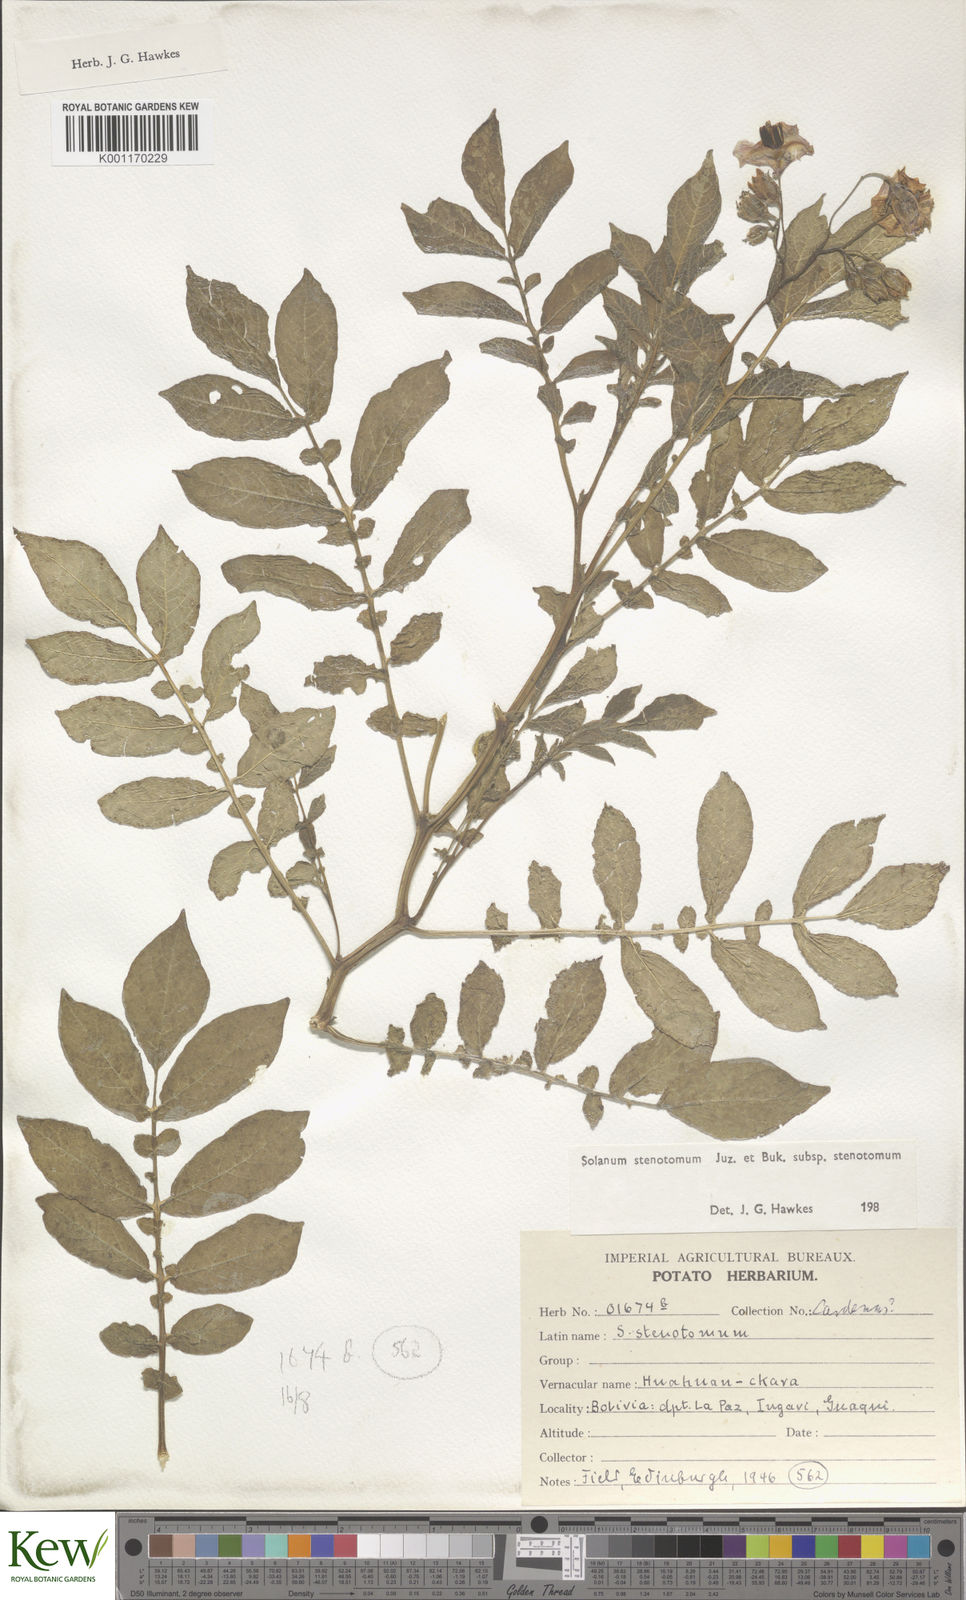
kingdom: Plantae
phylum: Tracheophyta
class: Magnoliopsida
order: Solanales
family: Solanaceae
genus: Solanum
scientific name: Solanum tuberosum
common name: Potato
